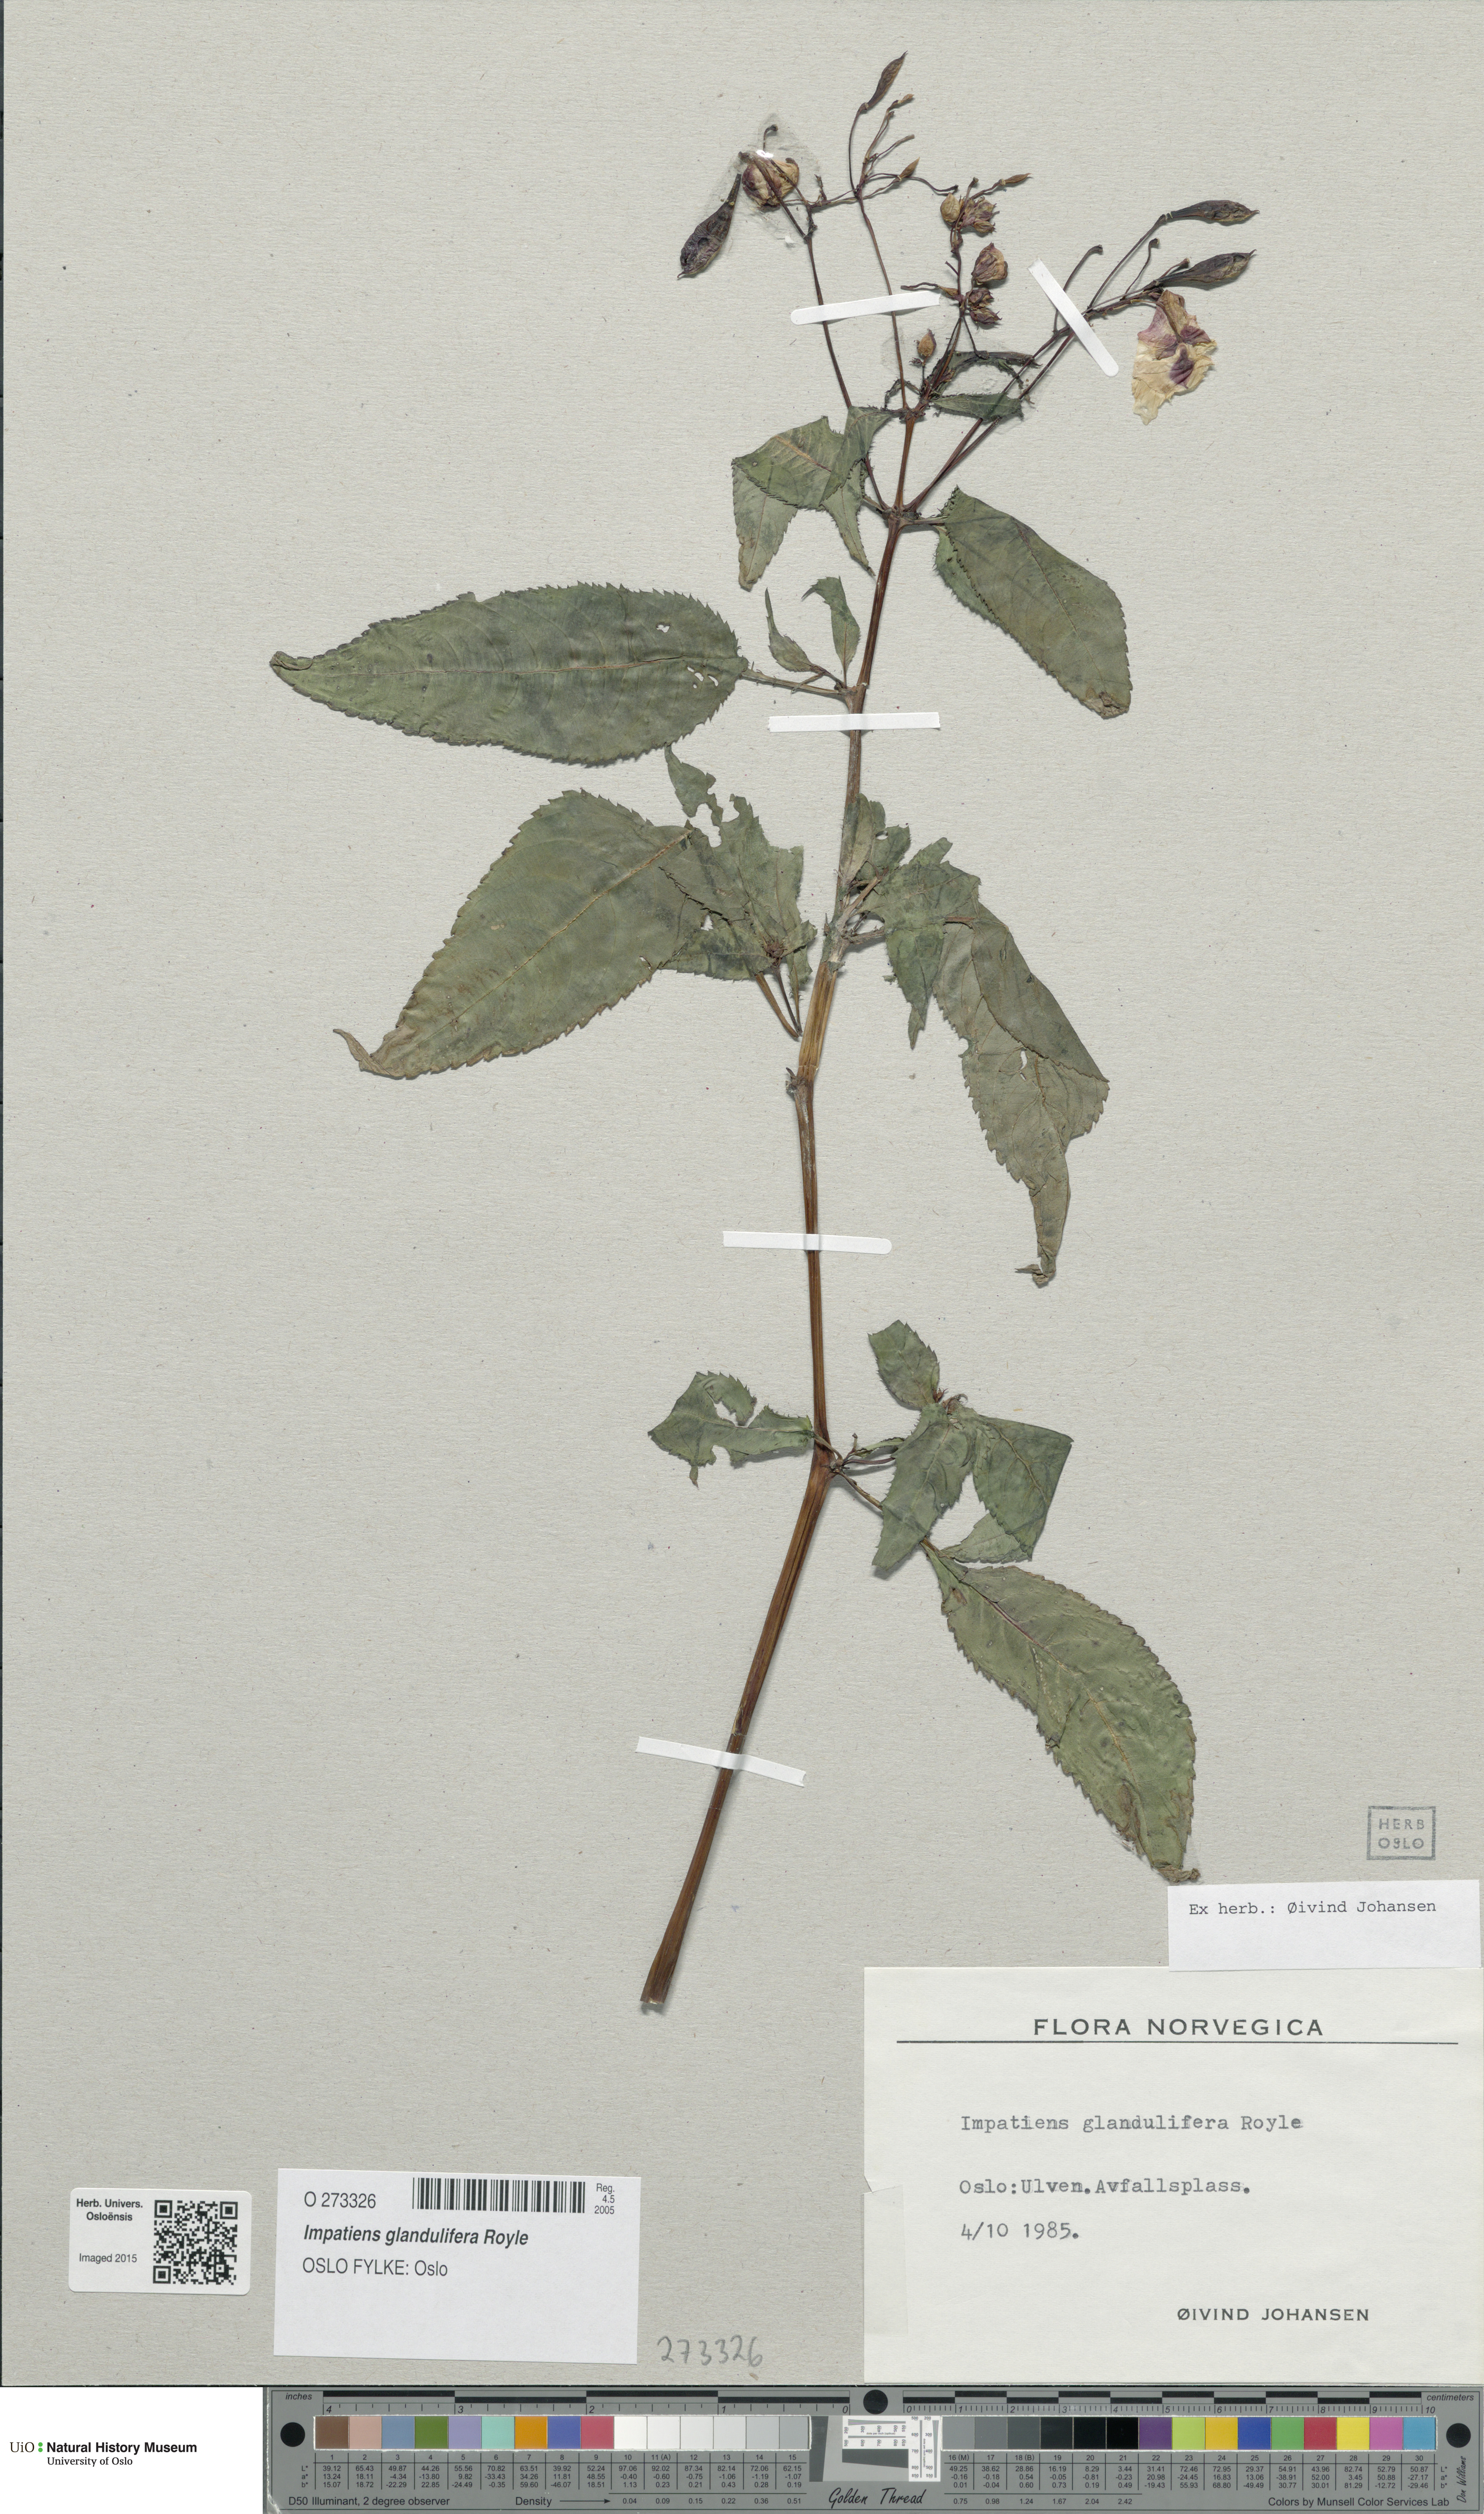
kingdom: Plantae
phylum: Tracheophyta
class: Magnoliopsida
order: Ericales
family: Balsaminaceae
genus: Impatiens
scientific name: Impatiens glandulifera
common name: Himalayan balsam
